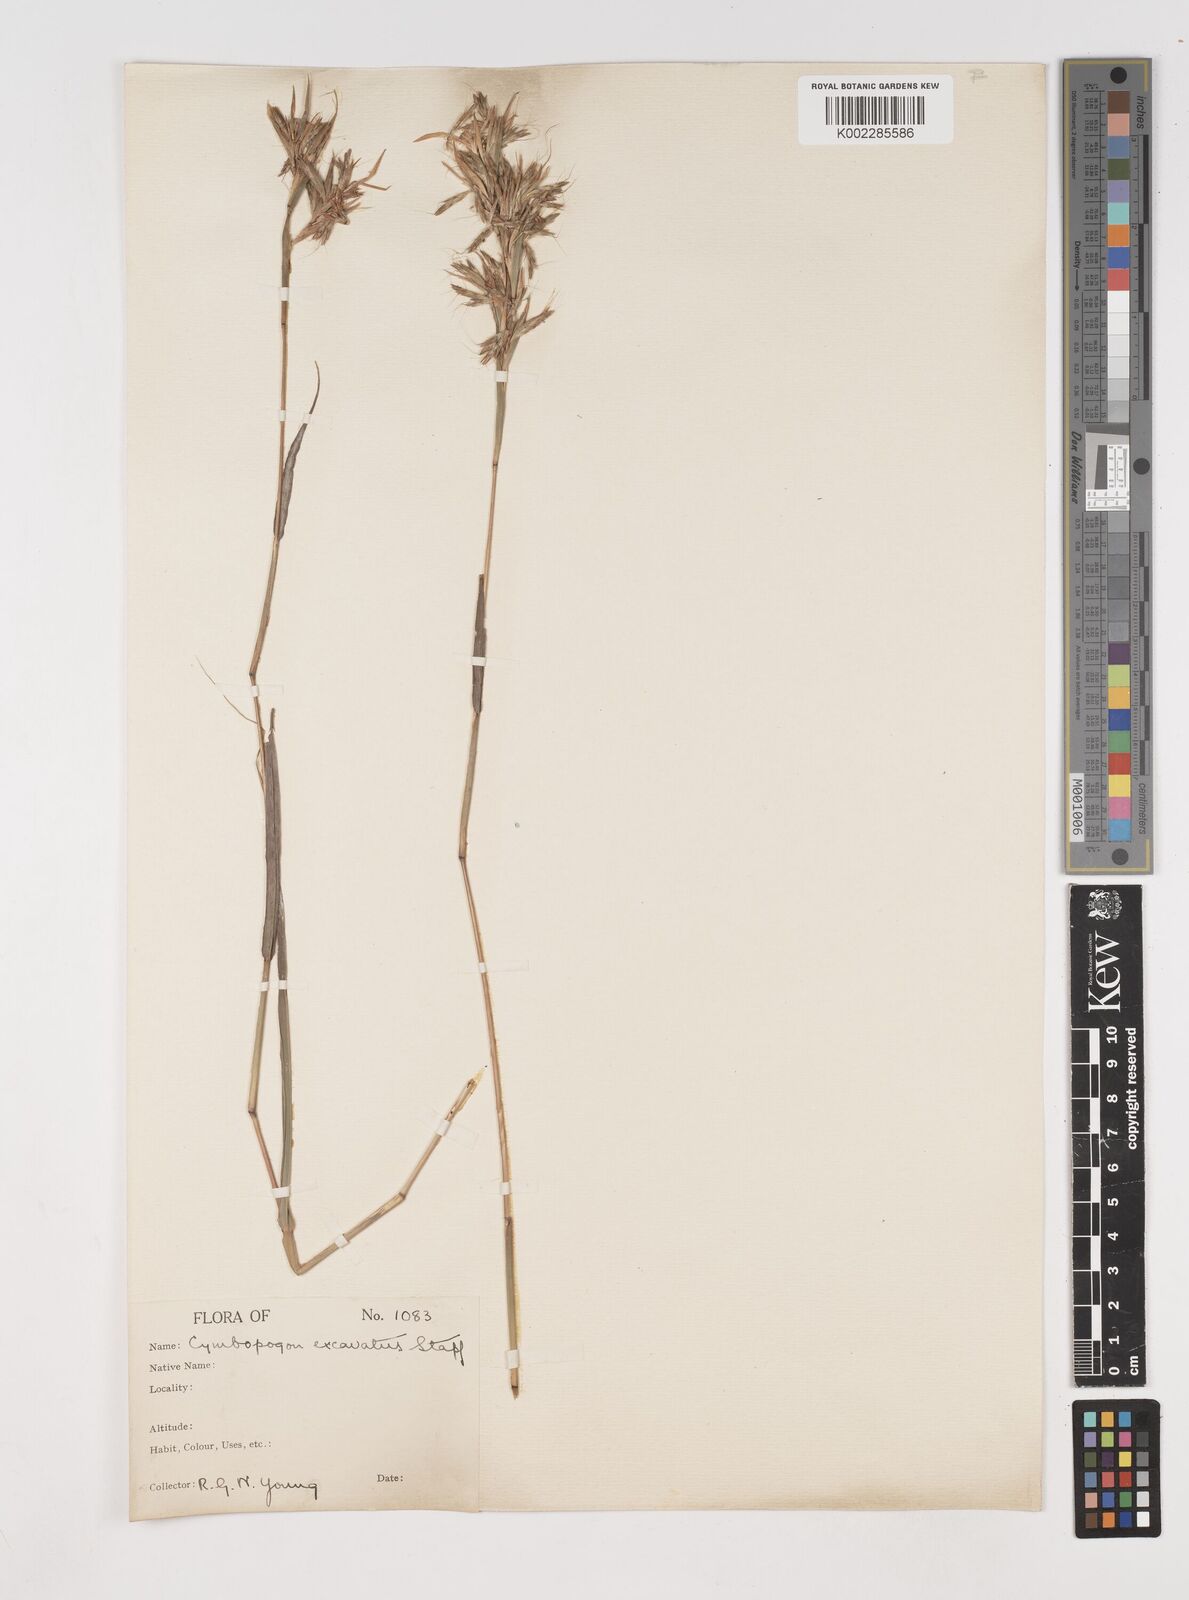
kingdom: Plantae
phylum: Tracheophyta
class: Liliopsida
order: Poales
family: Poaceae
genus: Cymbopogon
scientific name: Cymbopogon caesius
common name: Kachi grass
